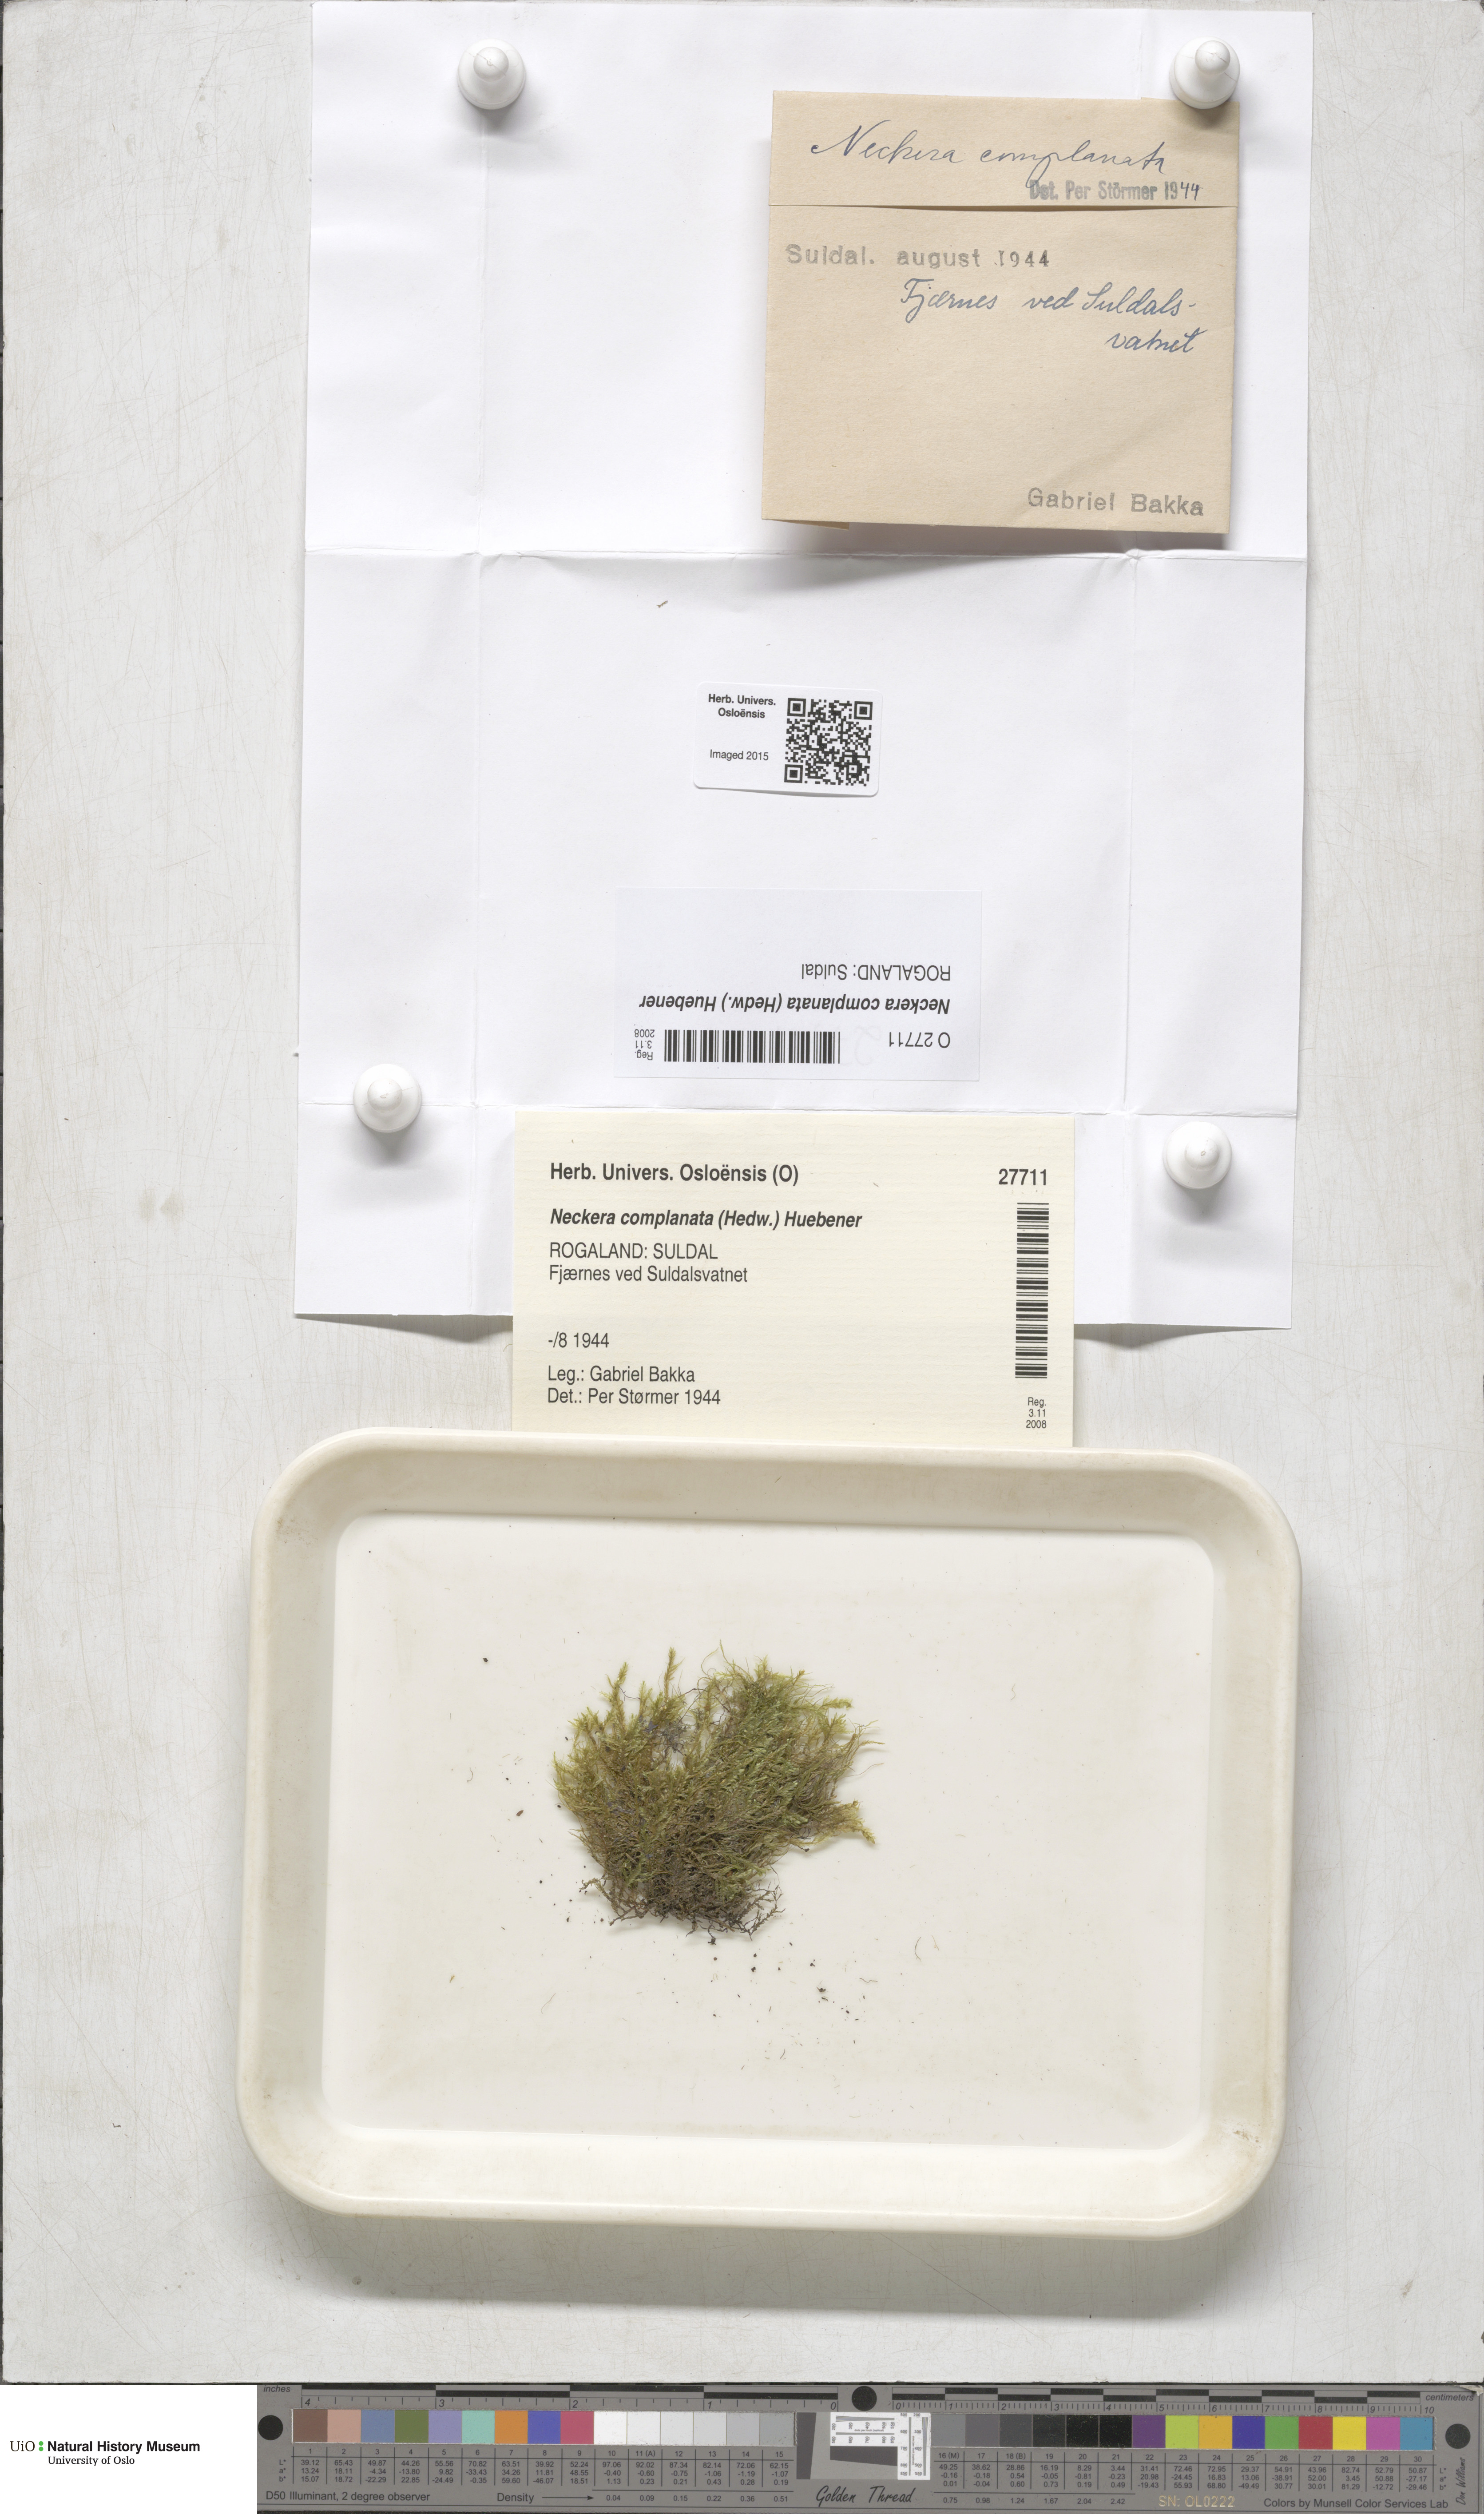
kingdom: Plantae
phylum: Bryophyta
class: Bryopsida
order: Hypnales
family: Neckeraceae
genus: Alleniella
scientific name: Alleniella complanata
